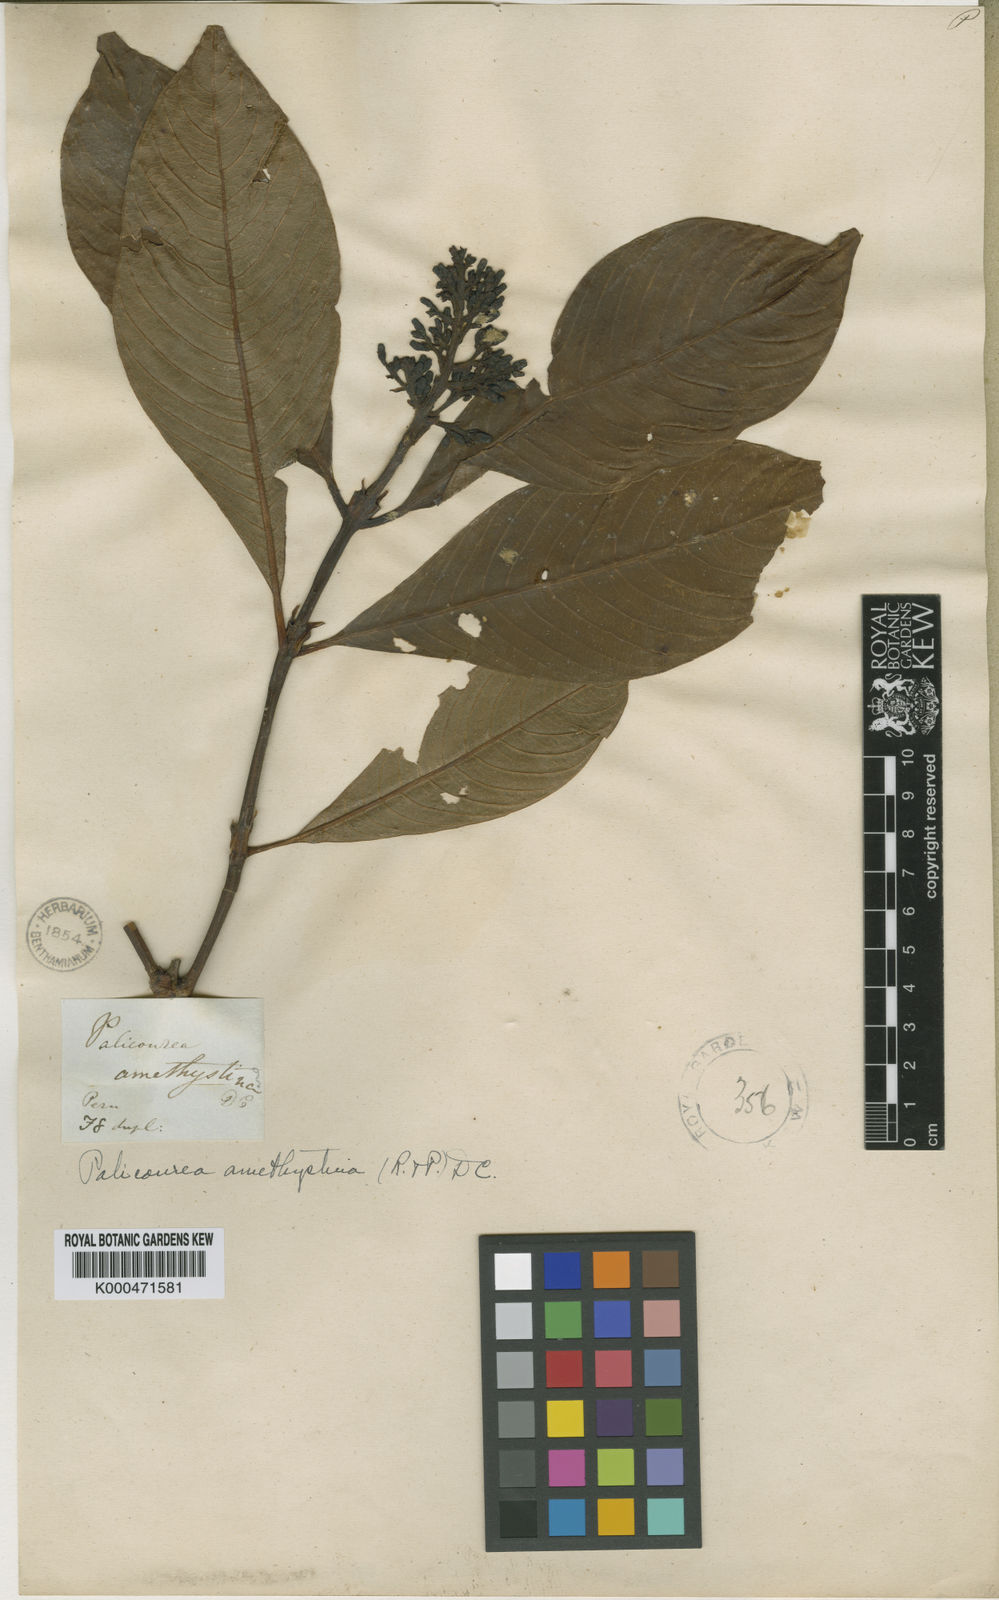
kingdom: Plantae
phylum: Tracheophyta
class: Magnoliopsida
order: Gentianales
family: Rubiaceae
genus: Palicourea
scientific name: Palicourea amethystina
